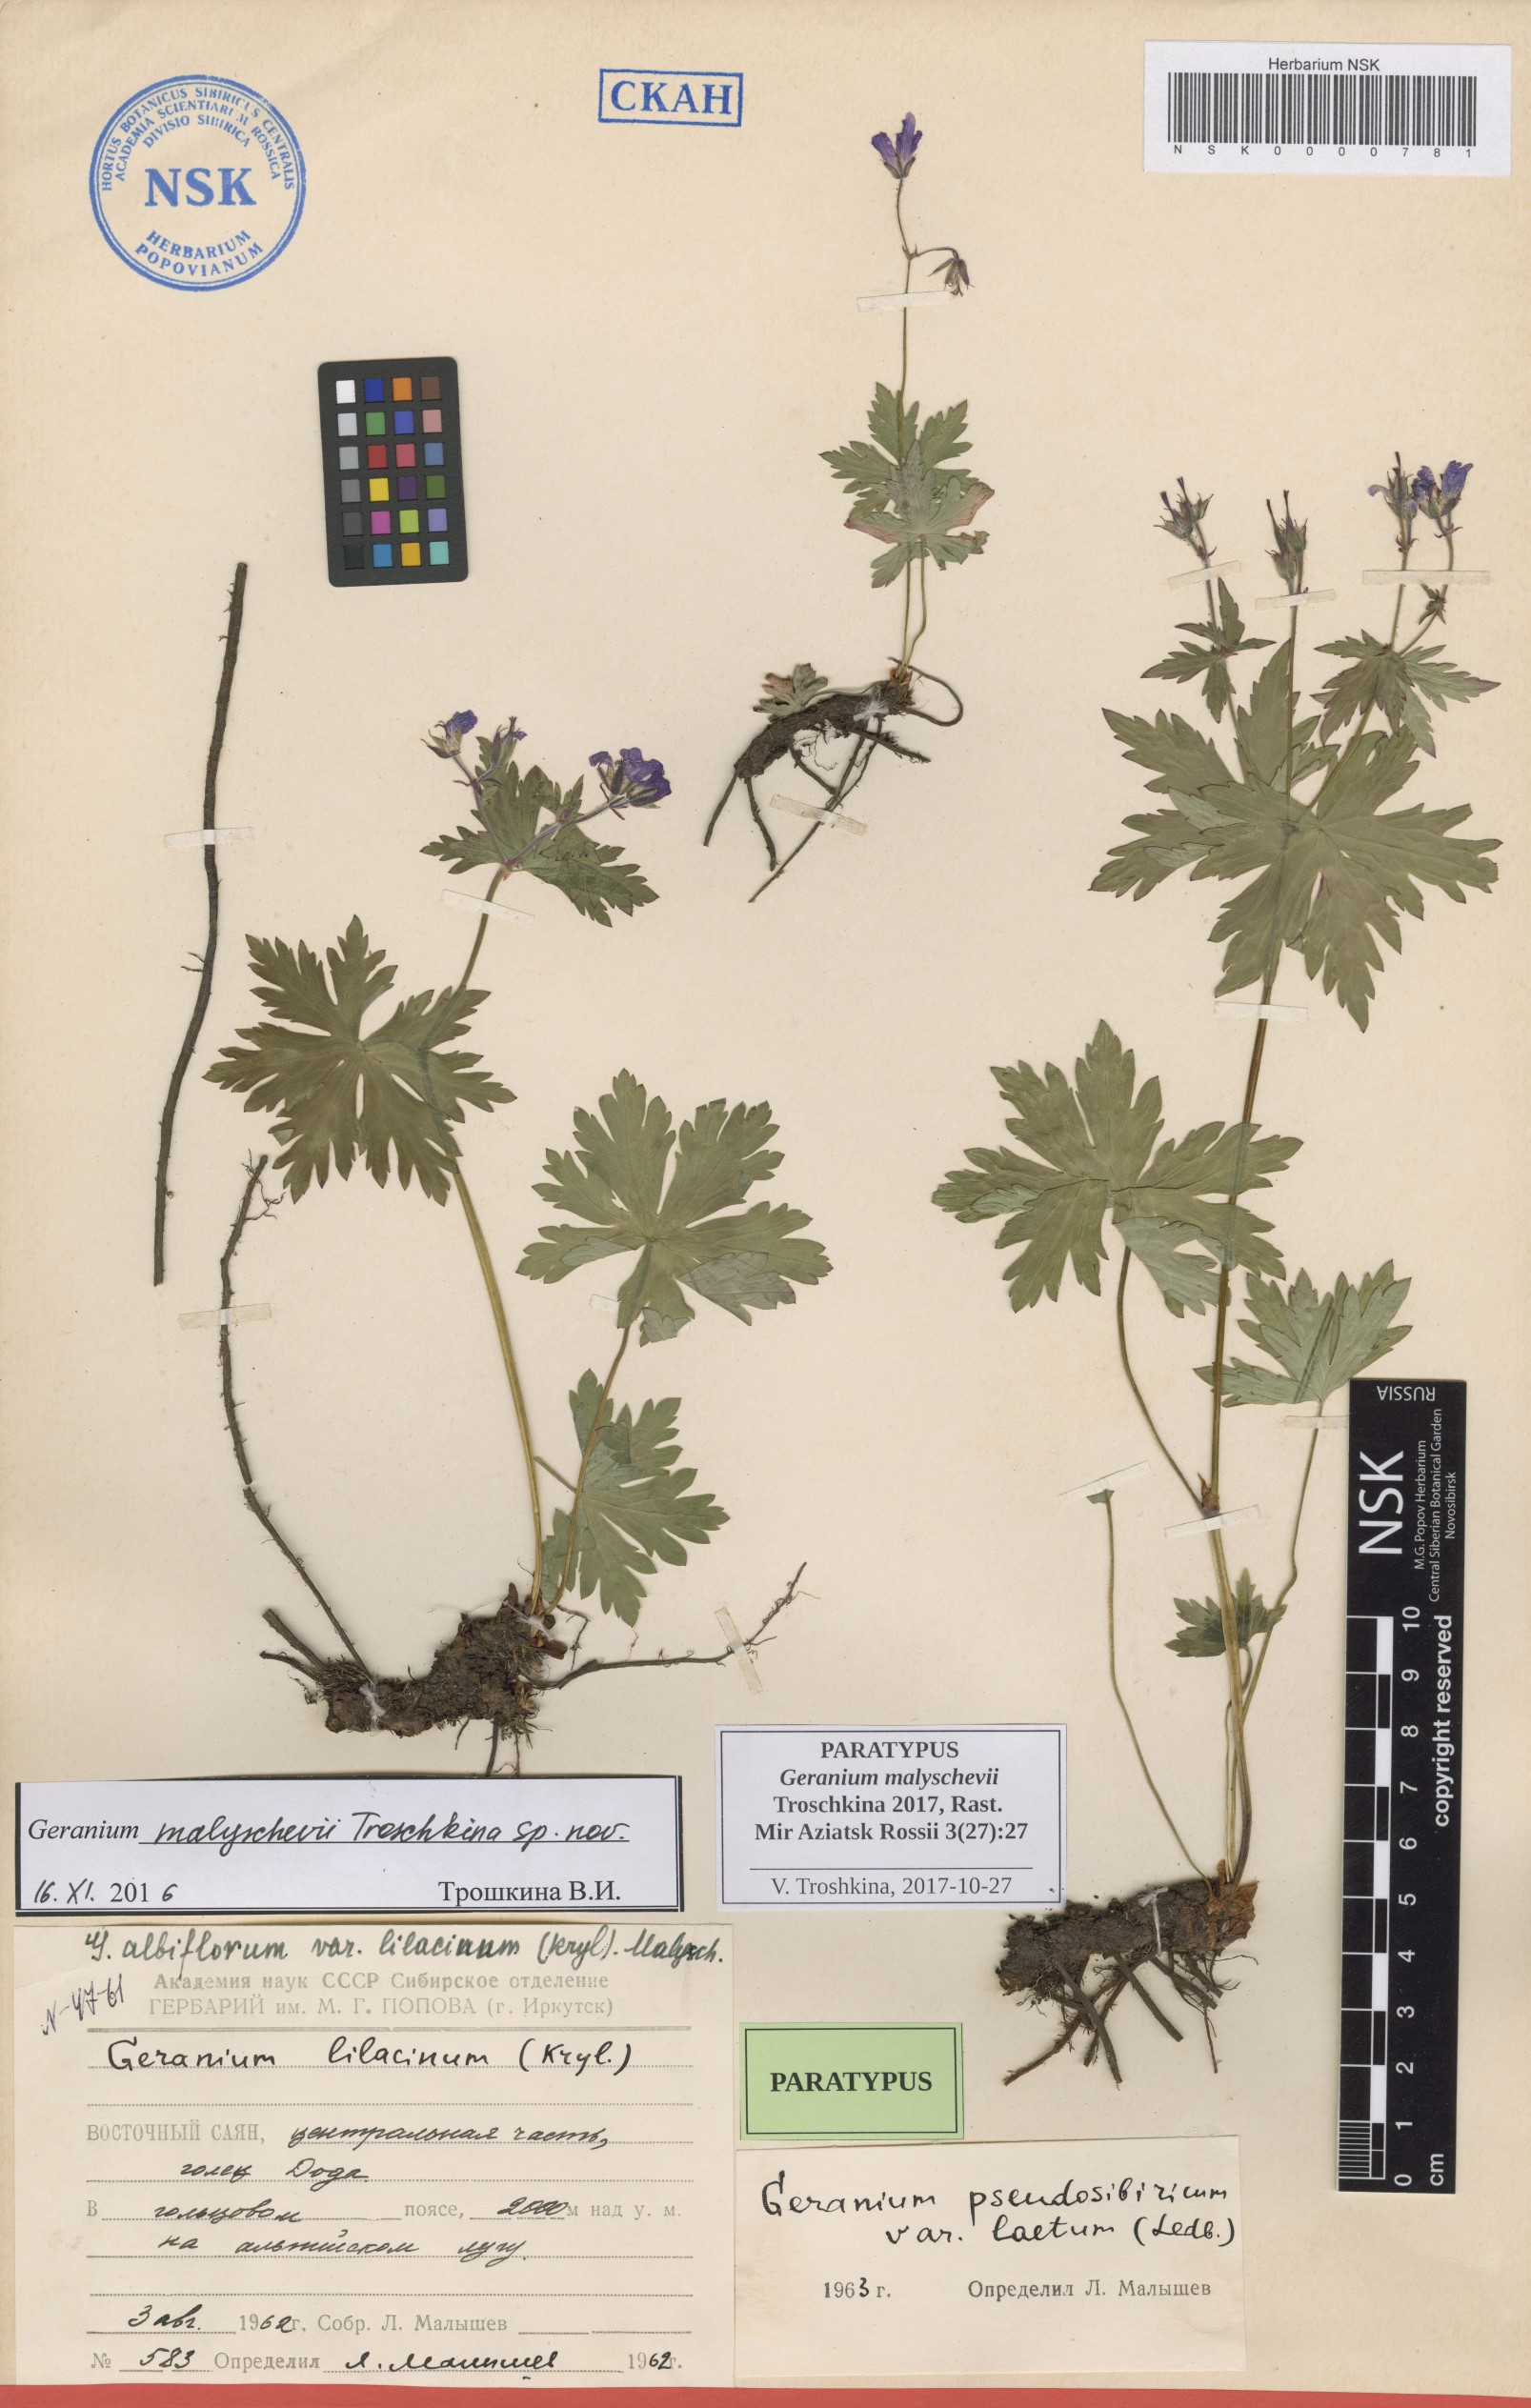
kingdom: Plantae
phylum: Tracheophyta
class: Magnoliopsida
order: Geraniales
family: Geraniaceae
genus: Geranium
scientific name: Geranium malyschevii
